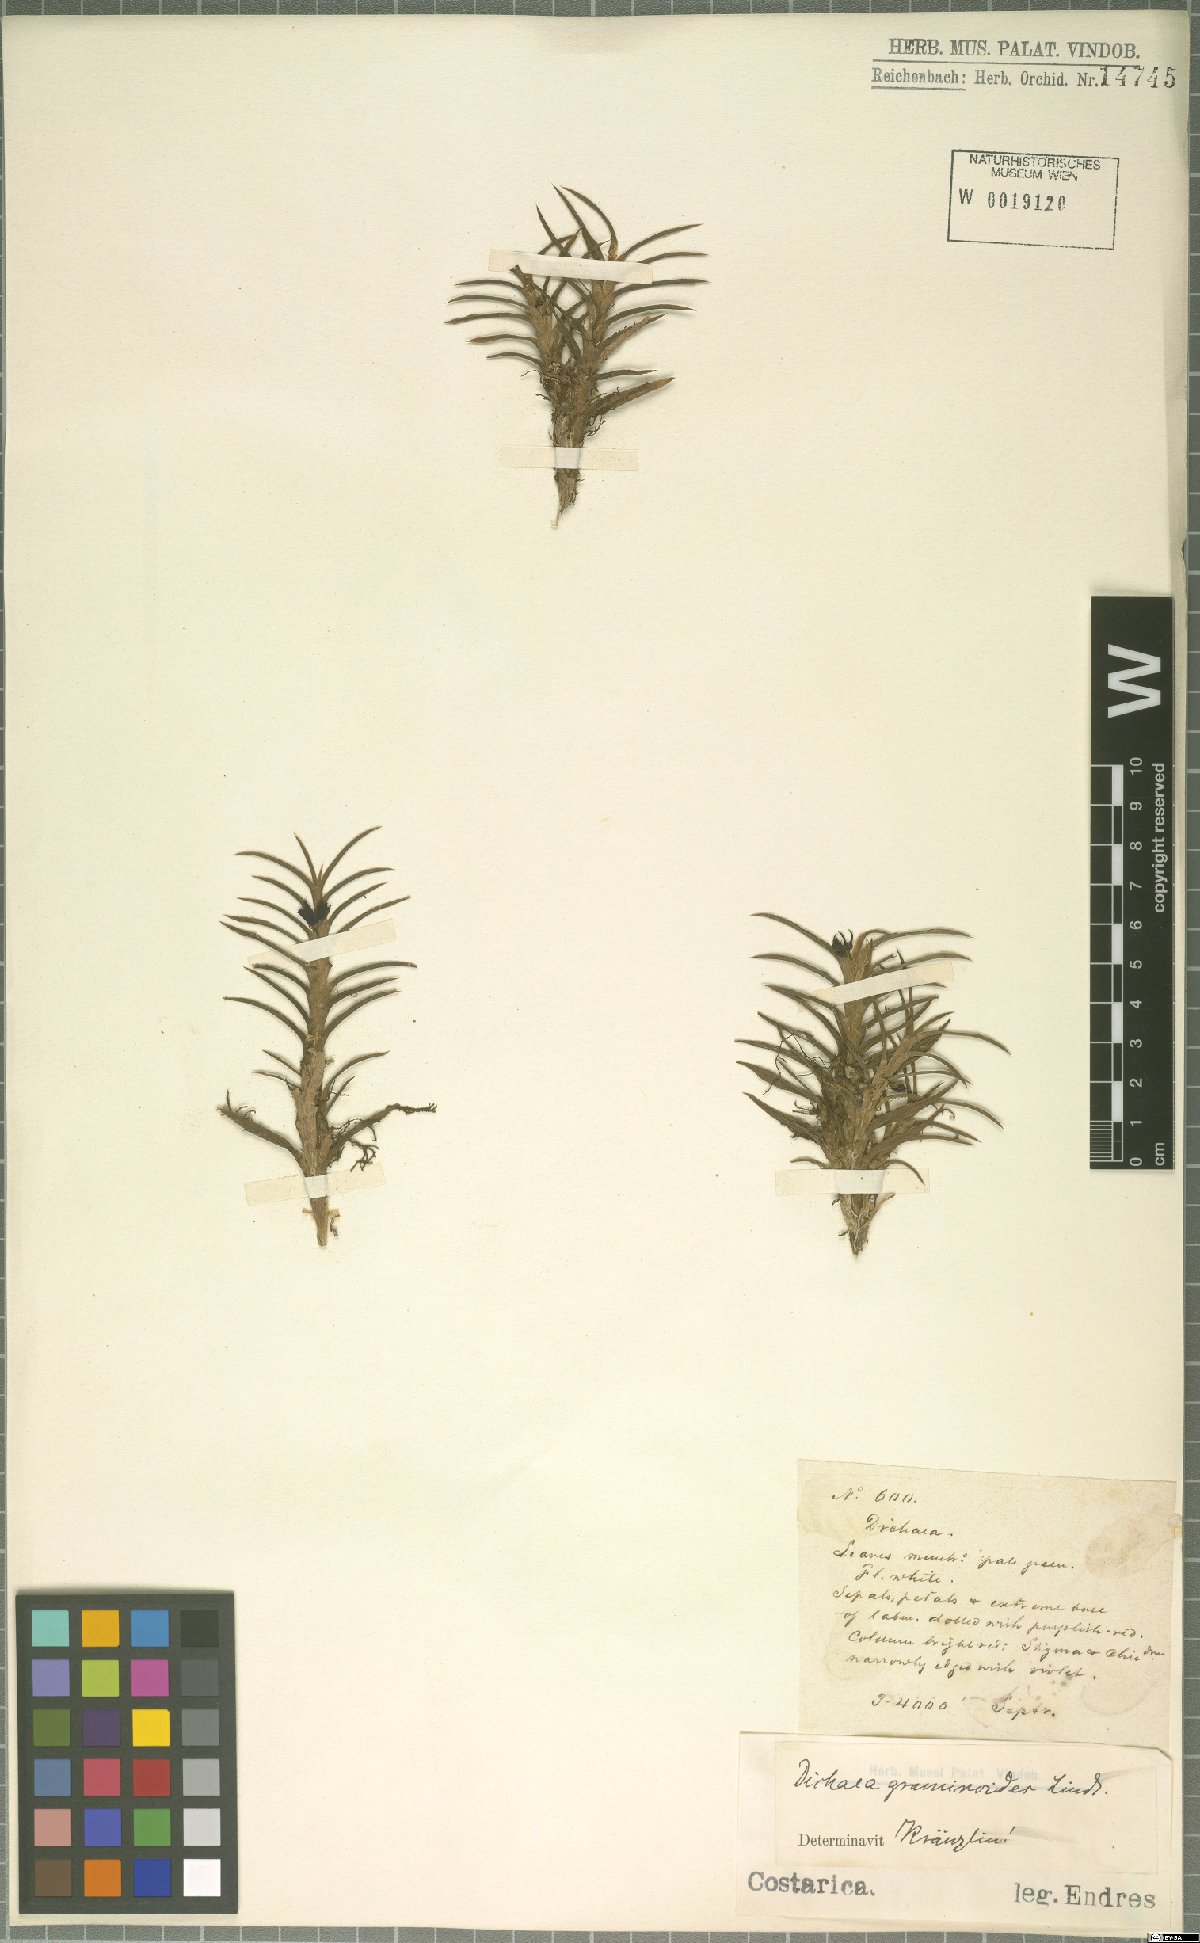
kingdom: Plantae
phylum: Tracheophyta
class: Liliopsida
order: Asparagales
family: Orchidaceae
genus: Dichaea
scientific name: Dichaea graminoides
